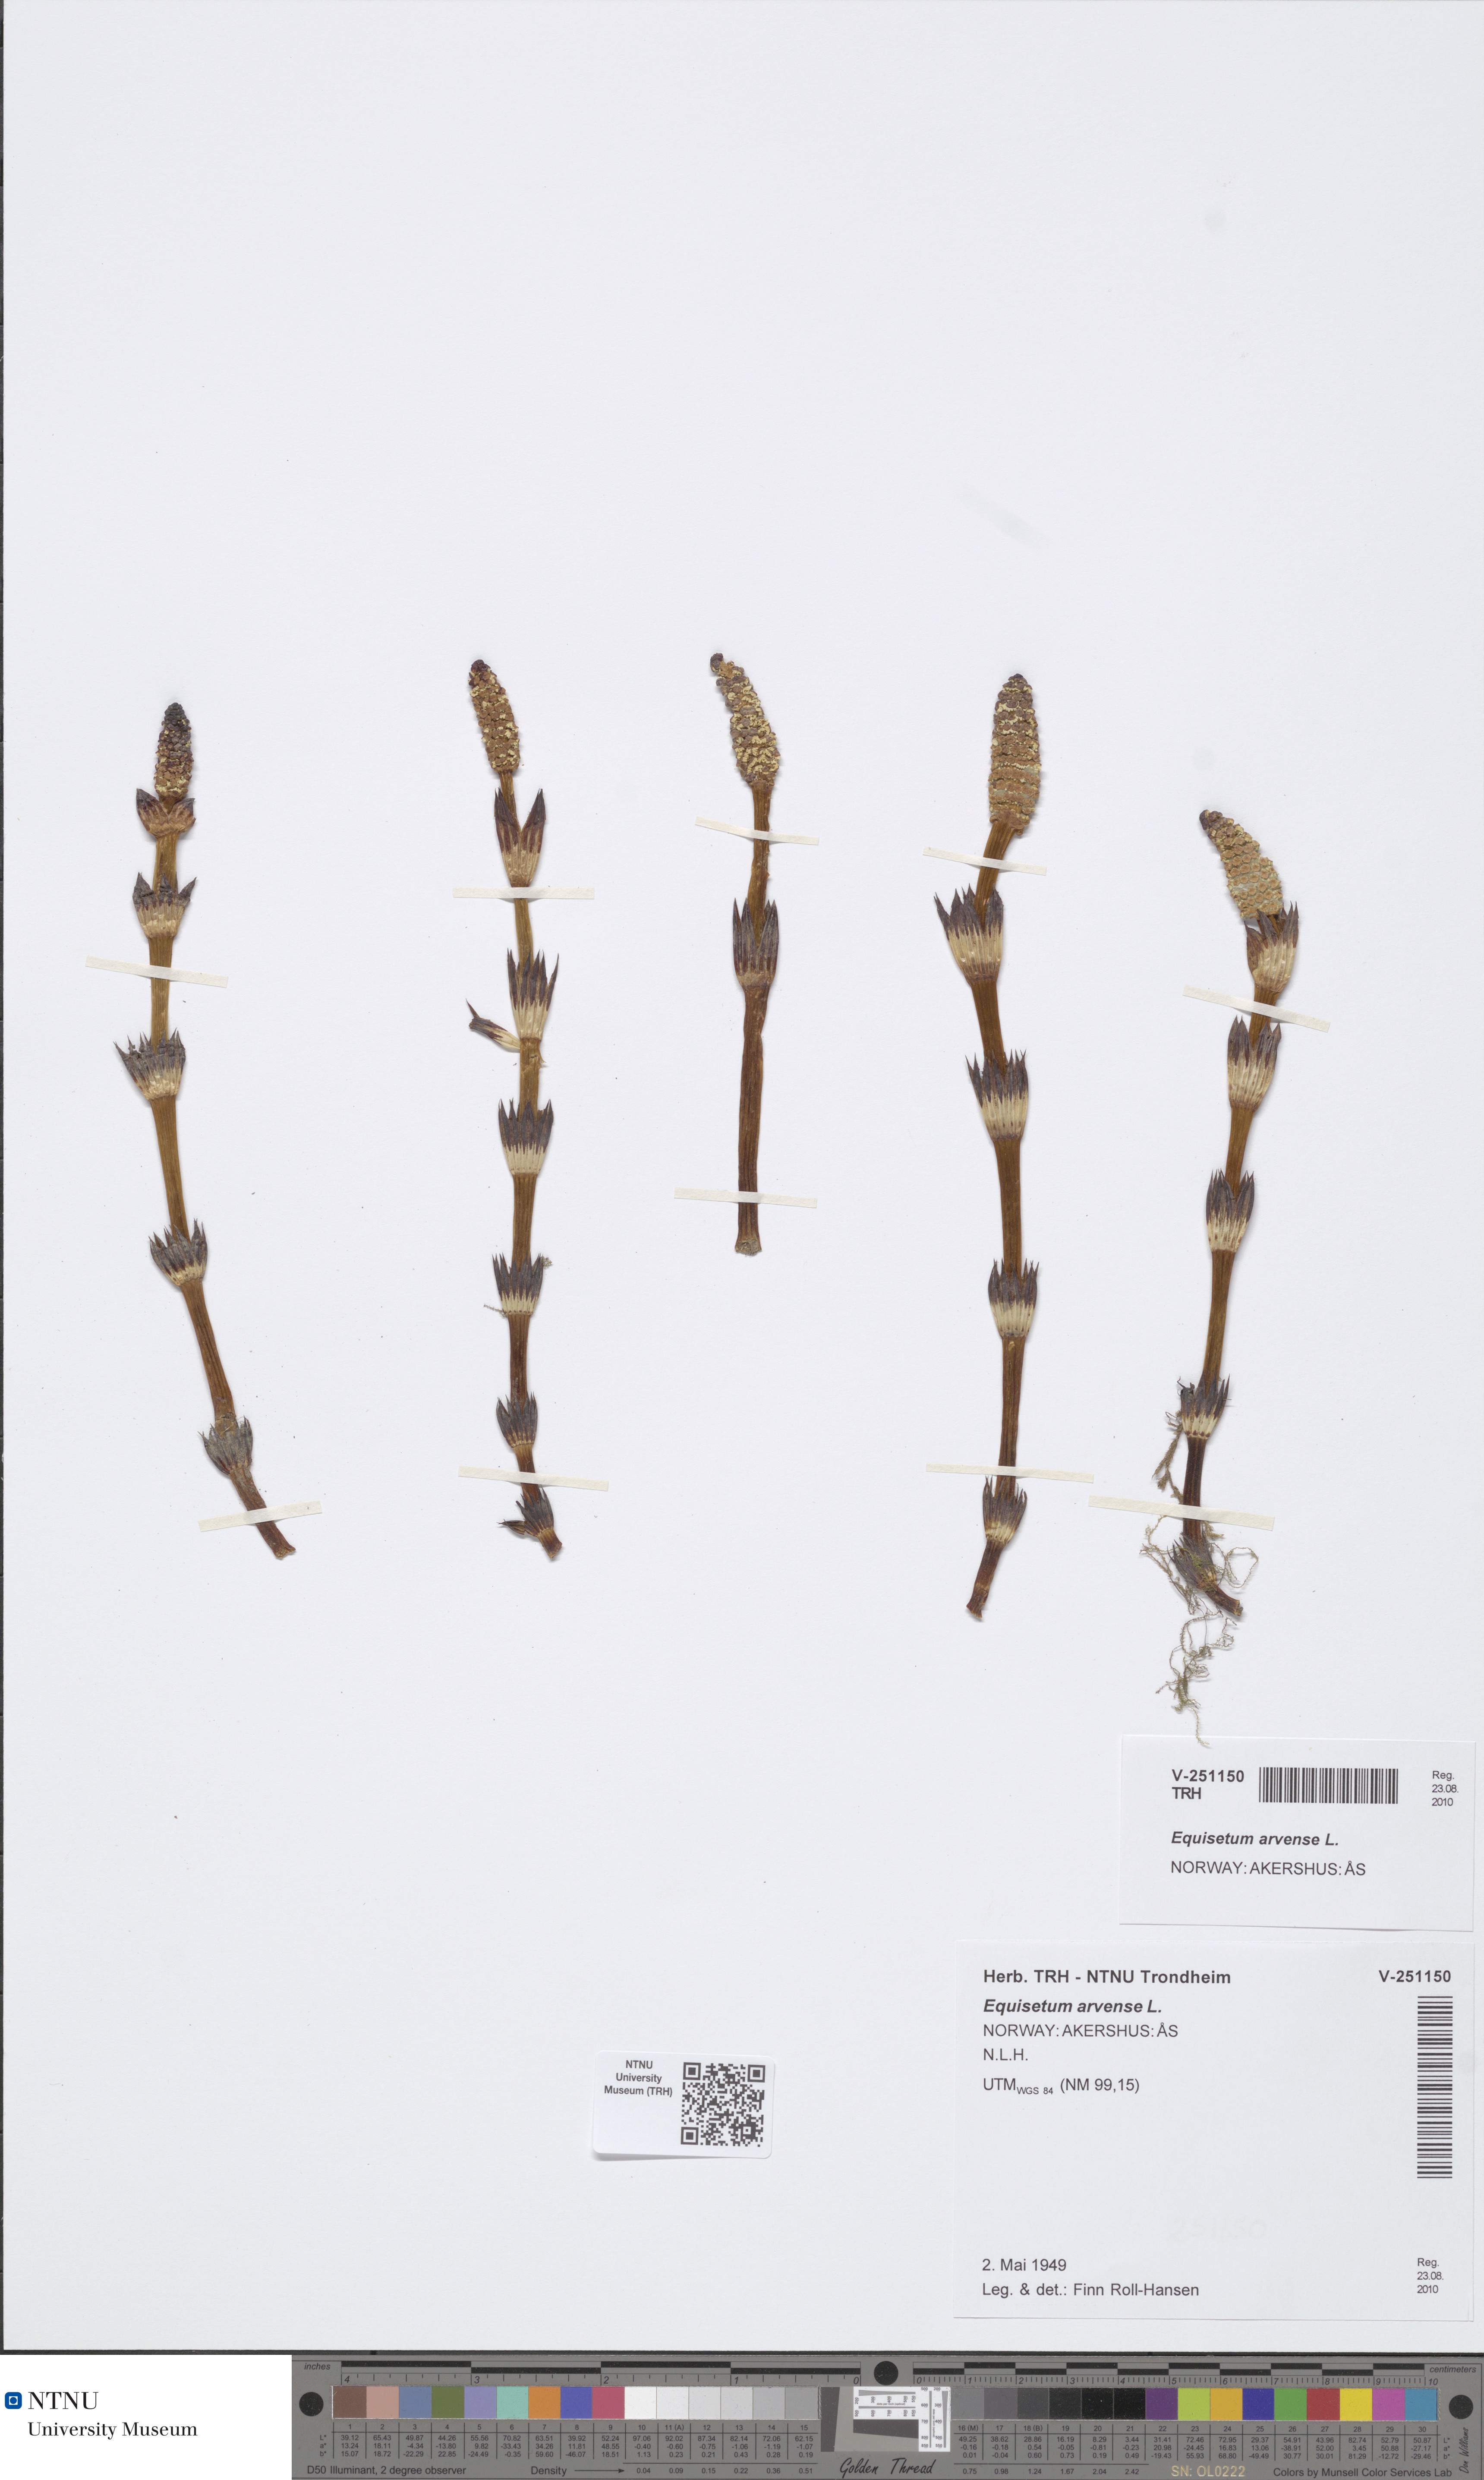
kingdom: Plantae
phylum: Tracheophyta
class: Polypodiopsida
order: Equisetales
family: Equisetaceae
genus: Equisetum
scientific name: Equisetum arvense
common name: Field horsetail
